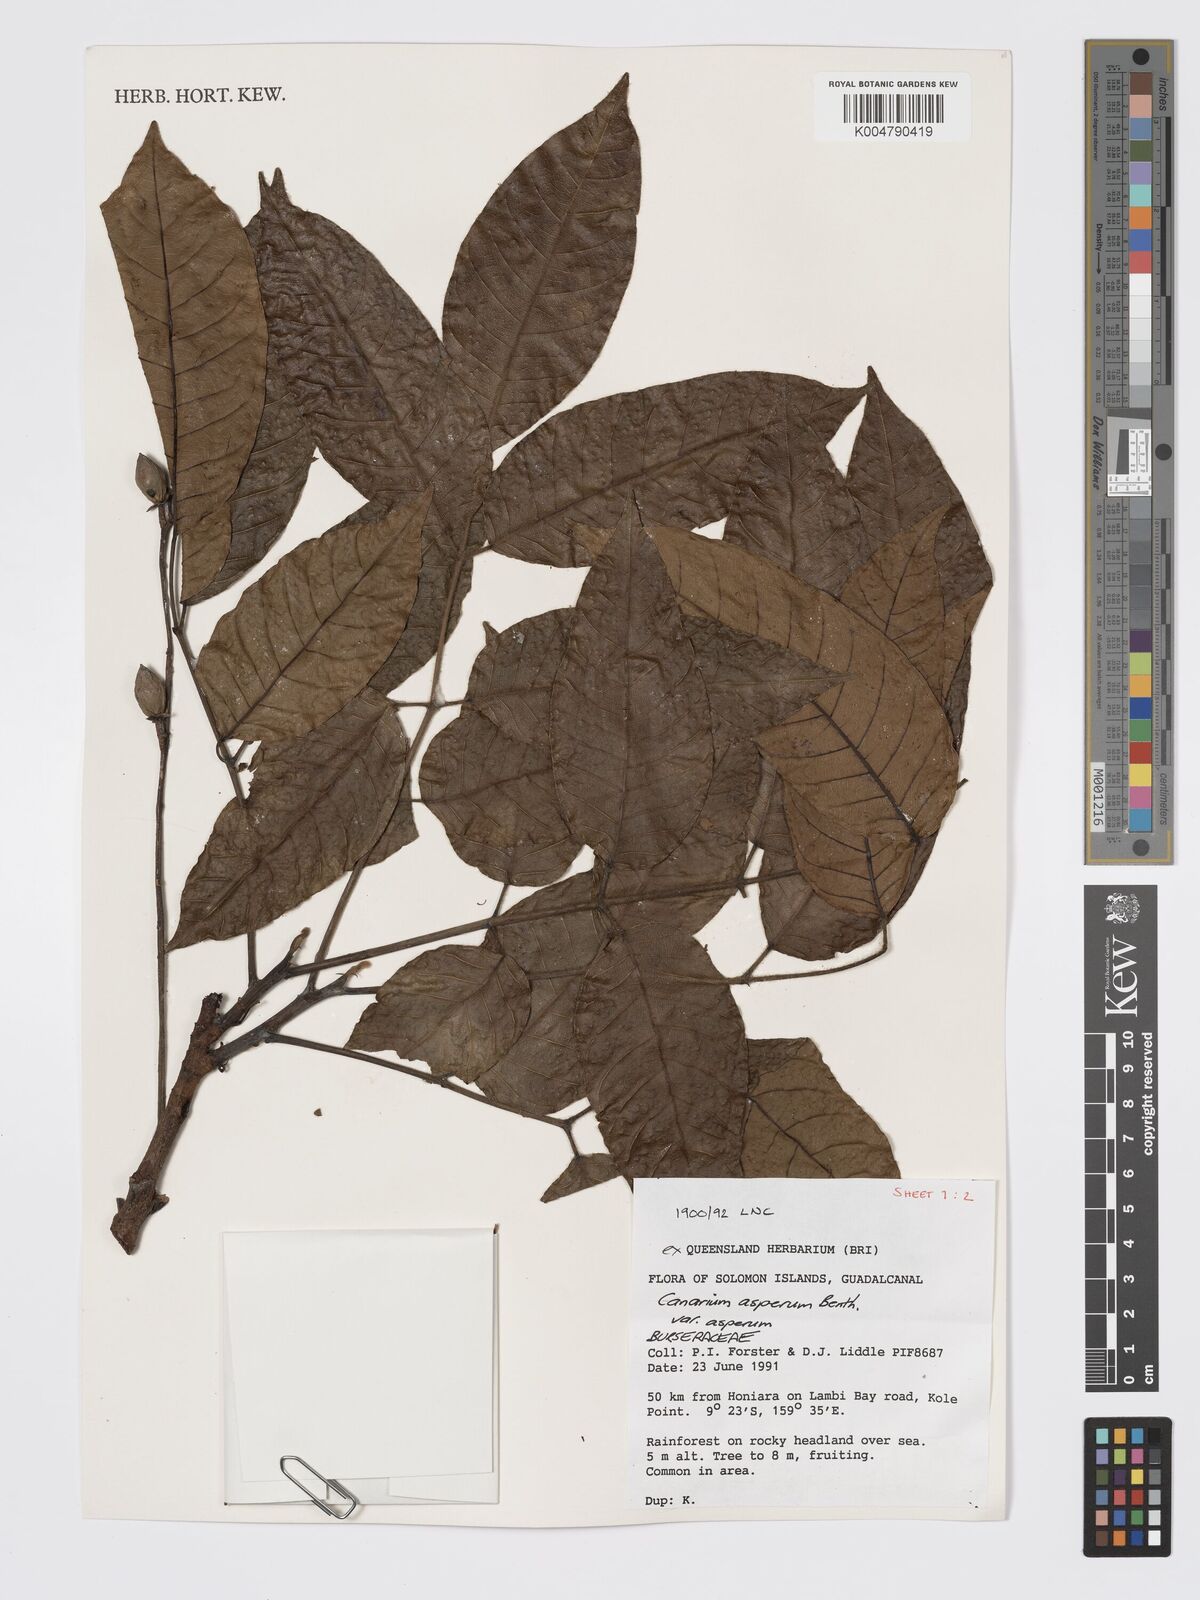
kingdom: Plantae
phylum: Tracheophyta
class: Magnoliopsida
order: Sapindales
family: Burseraceae
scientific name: Burseraceae
